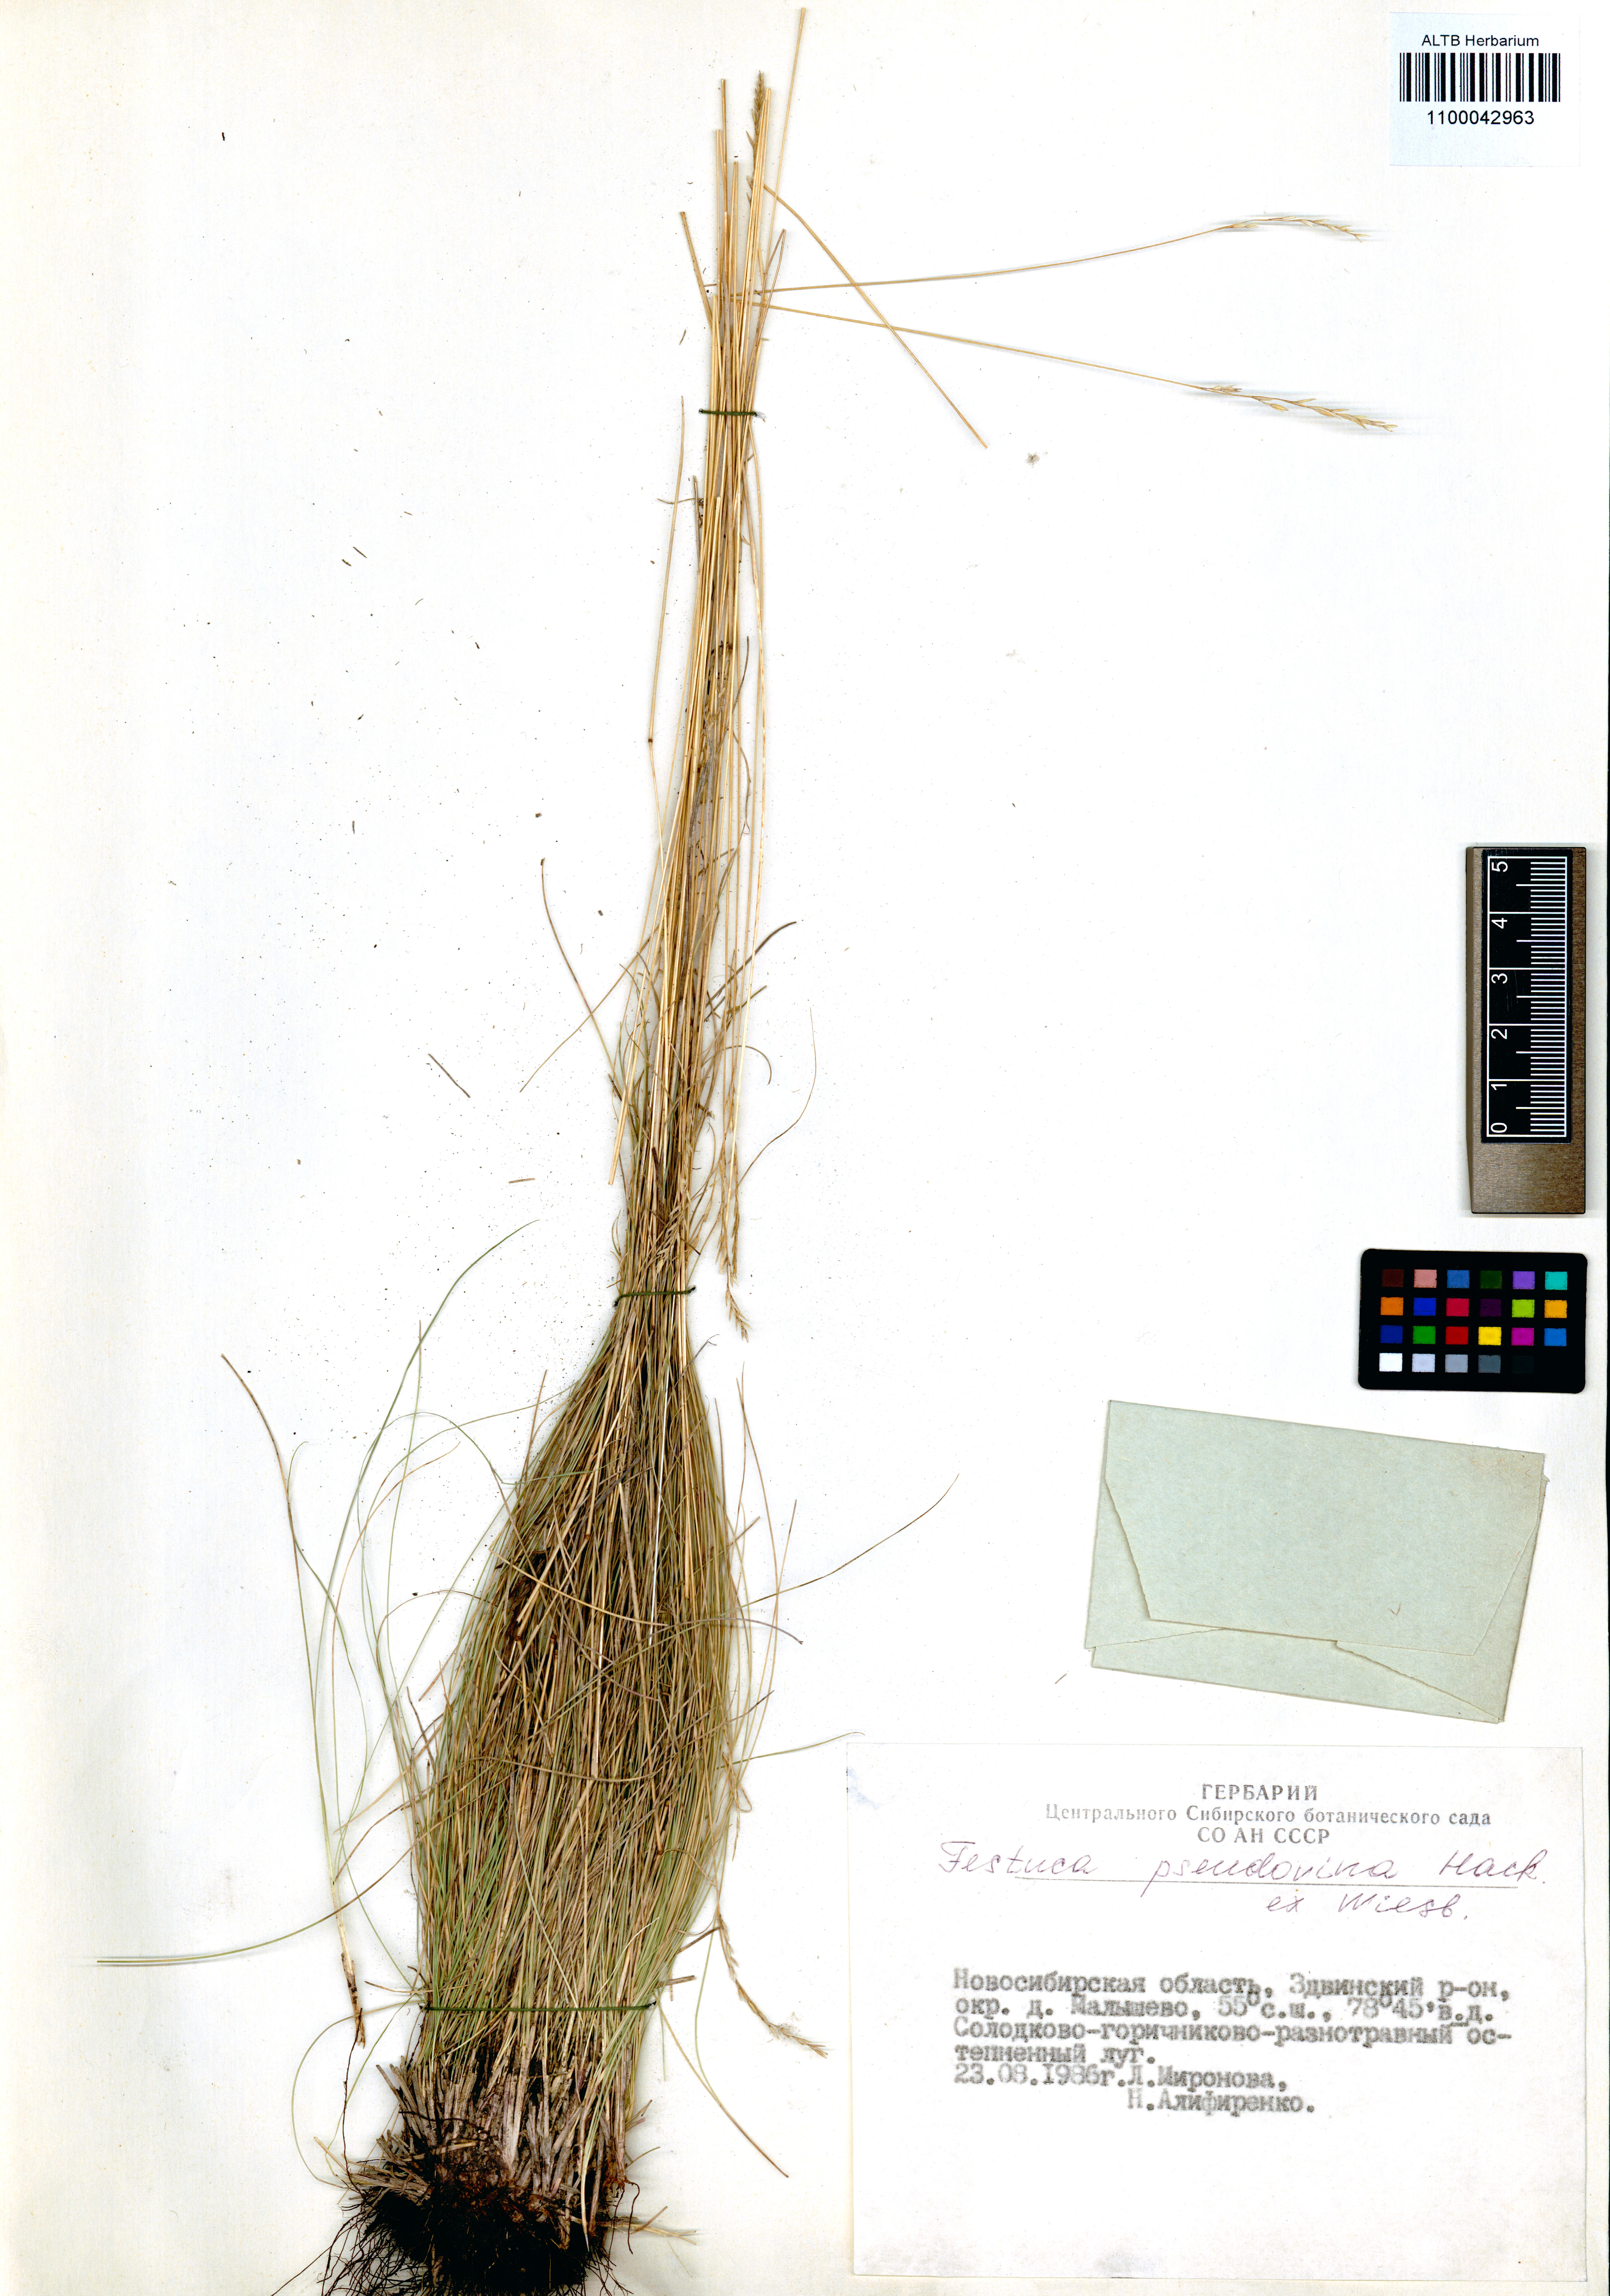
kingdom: Plantae
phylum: Tracheophyta
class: Liliopsida
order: Poales
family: Poaceae
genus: Festuca
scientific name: Festuca pulchra
